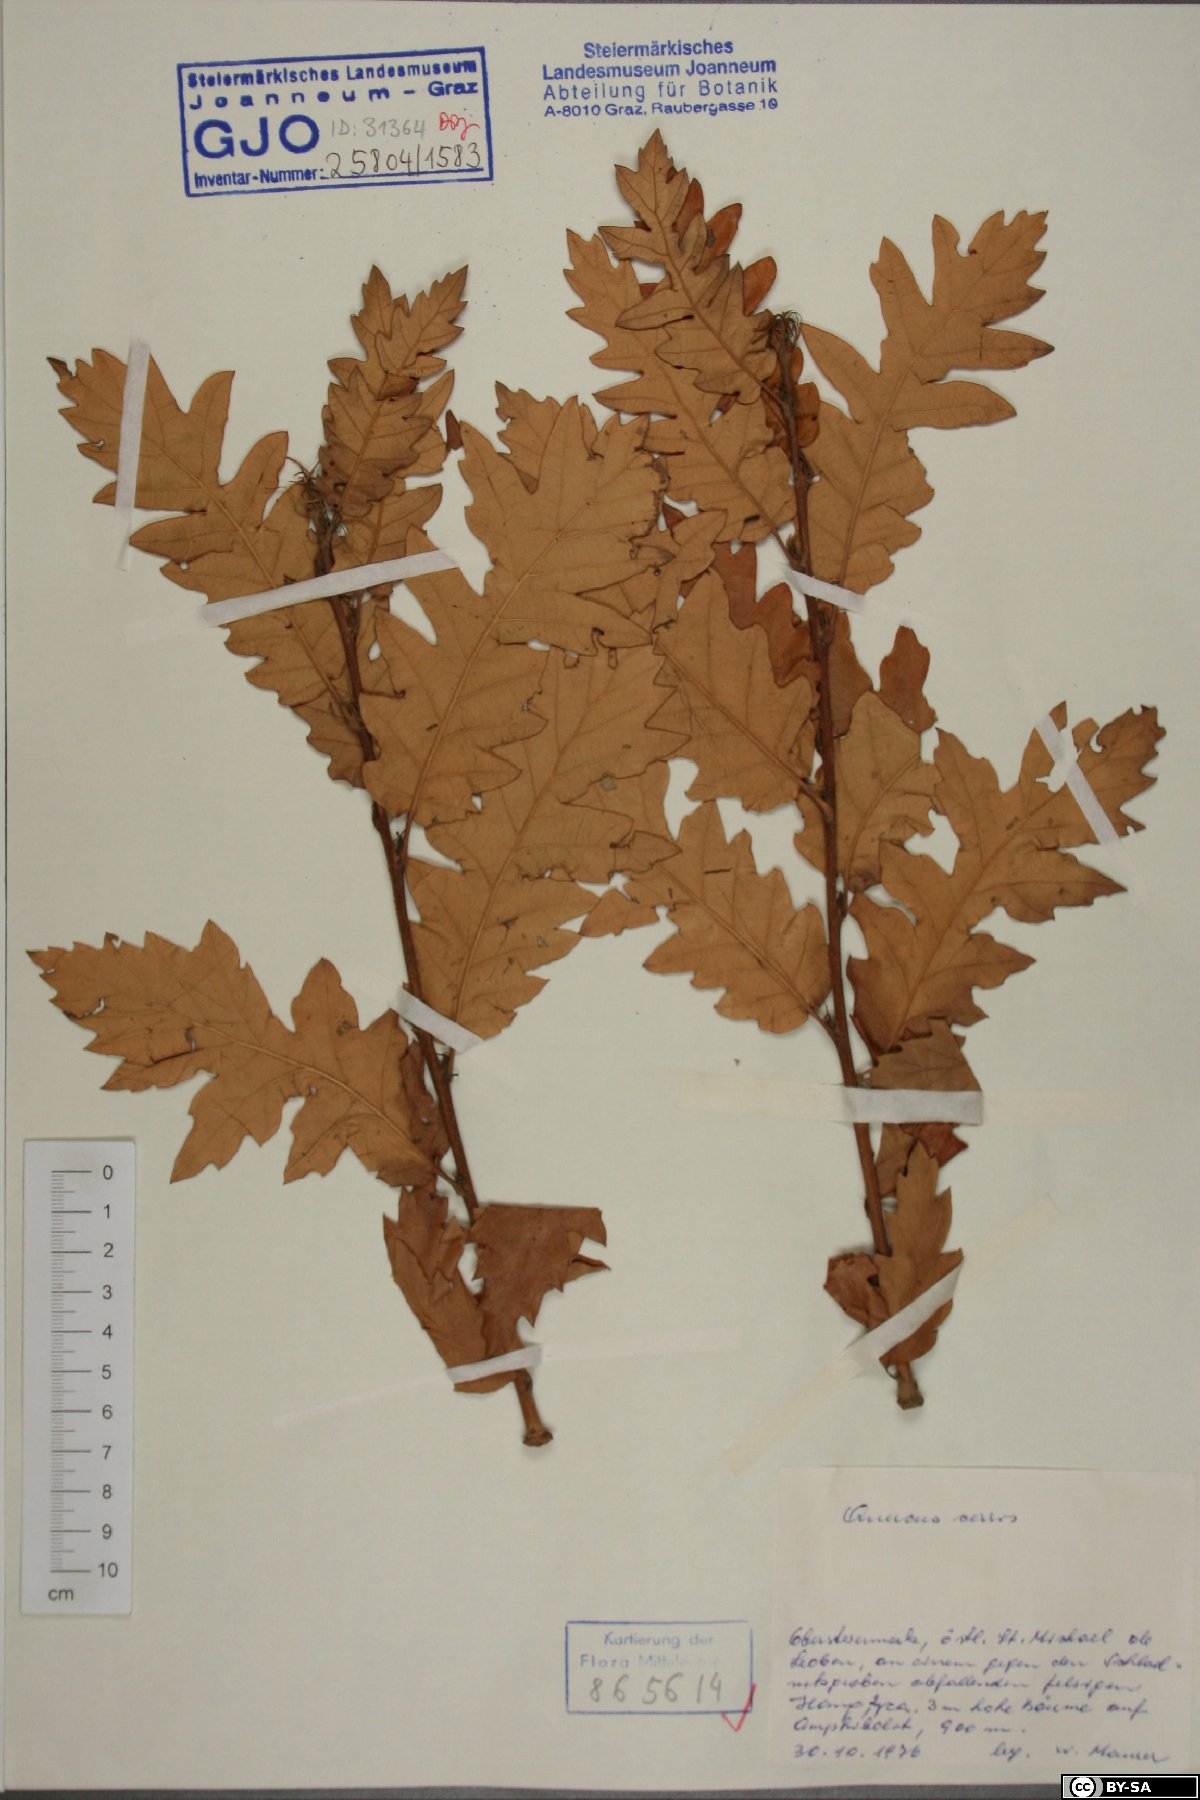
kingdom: Plantae
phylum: Tracheophyta
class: Magnoliopsida
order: Fagales
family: Fagaceae
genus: Quercus
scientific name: Quercus cerris
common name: Turkey oak
